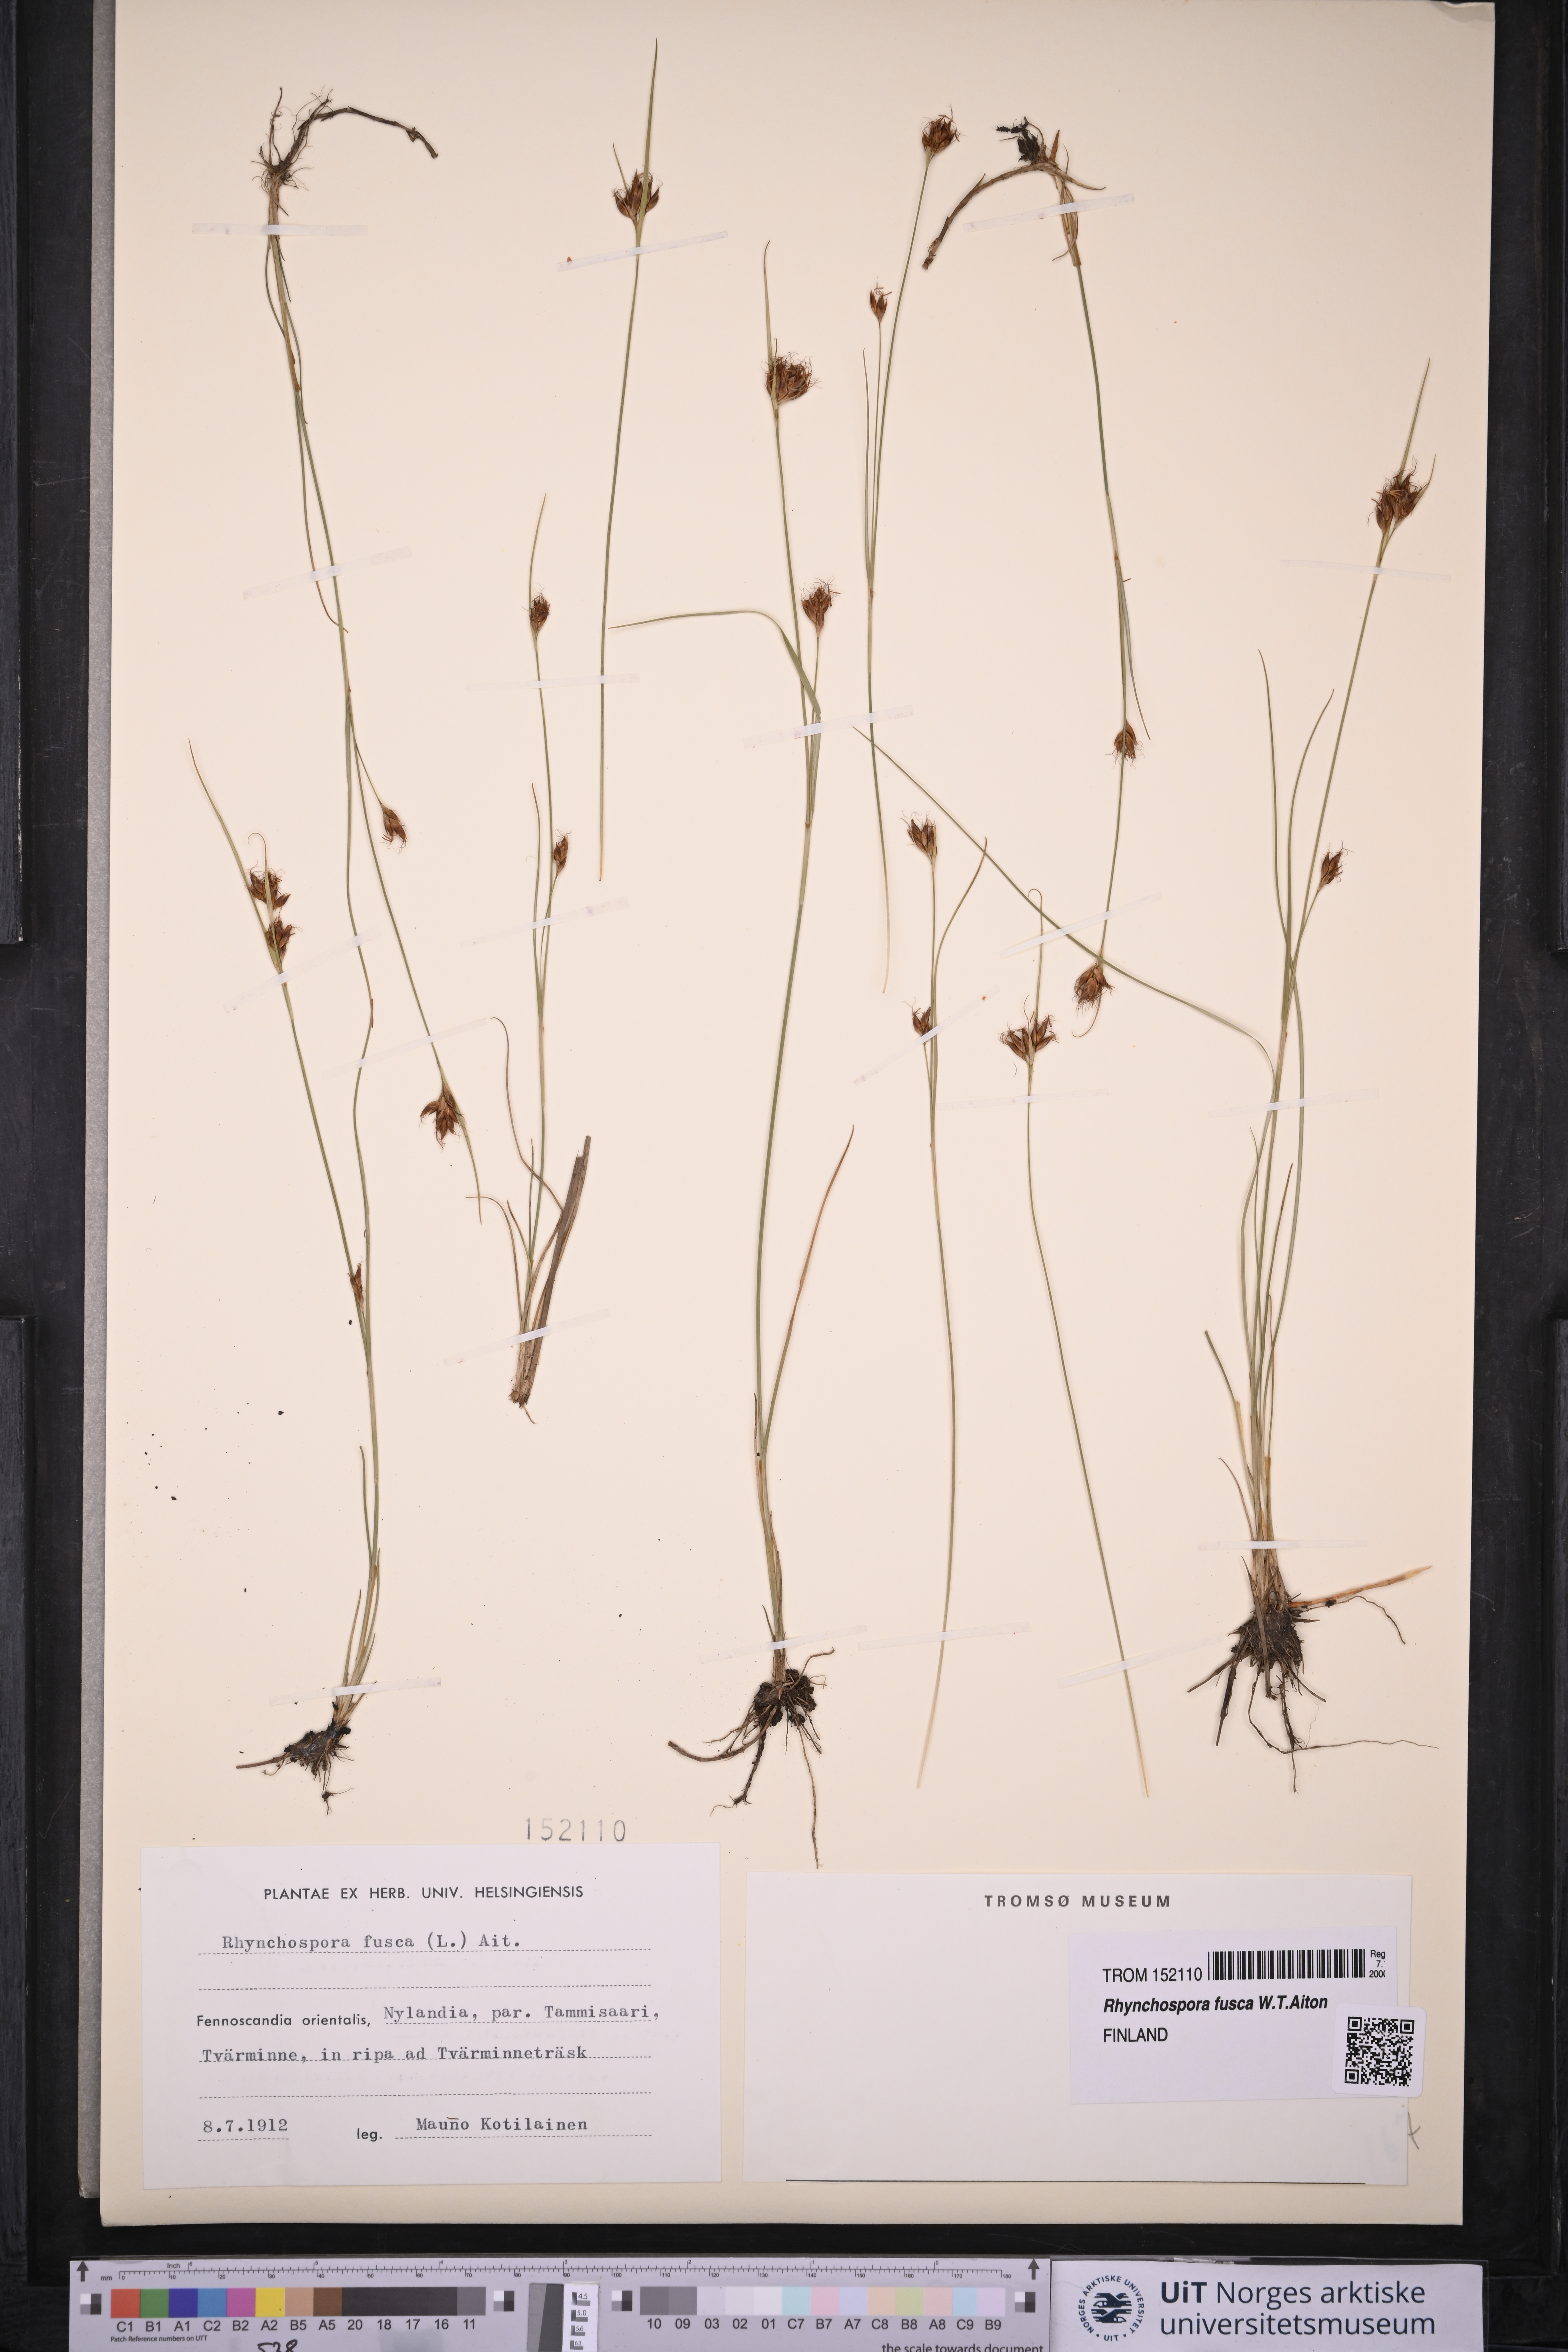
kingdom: Plantae
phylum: Tracheophyta
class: Liliopsida
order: Poales
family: Cyperaceae
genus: Rhynchospora
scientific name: Rhynchospora fusca
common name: Brown beak-sedge
